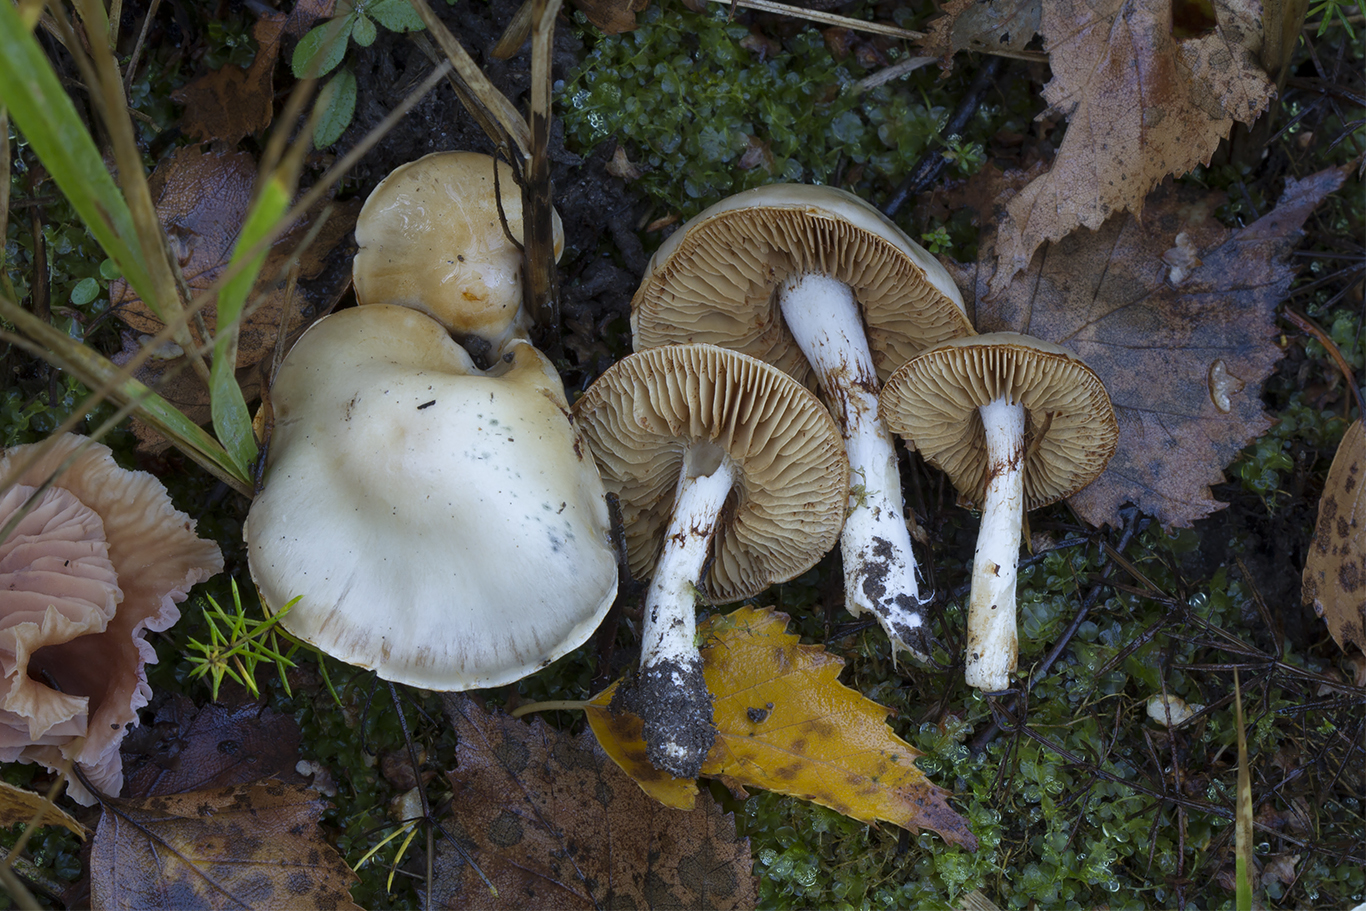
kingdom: Fungi
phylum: Basidiomycota
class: Agaricomycetes
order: Agaricales
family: Cortinariaceae
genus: Thaxterogaster
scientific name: Thaxterogaster leucoluteolus
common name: isabella slørhat
